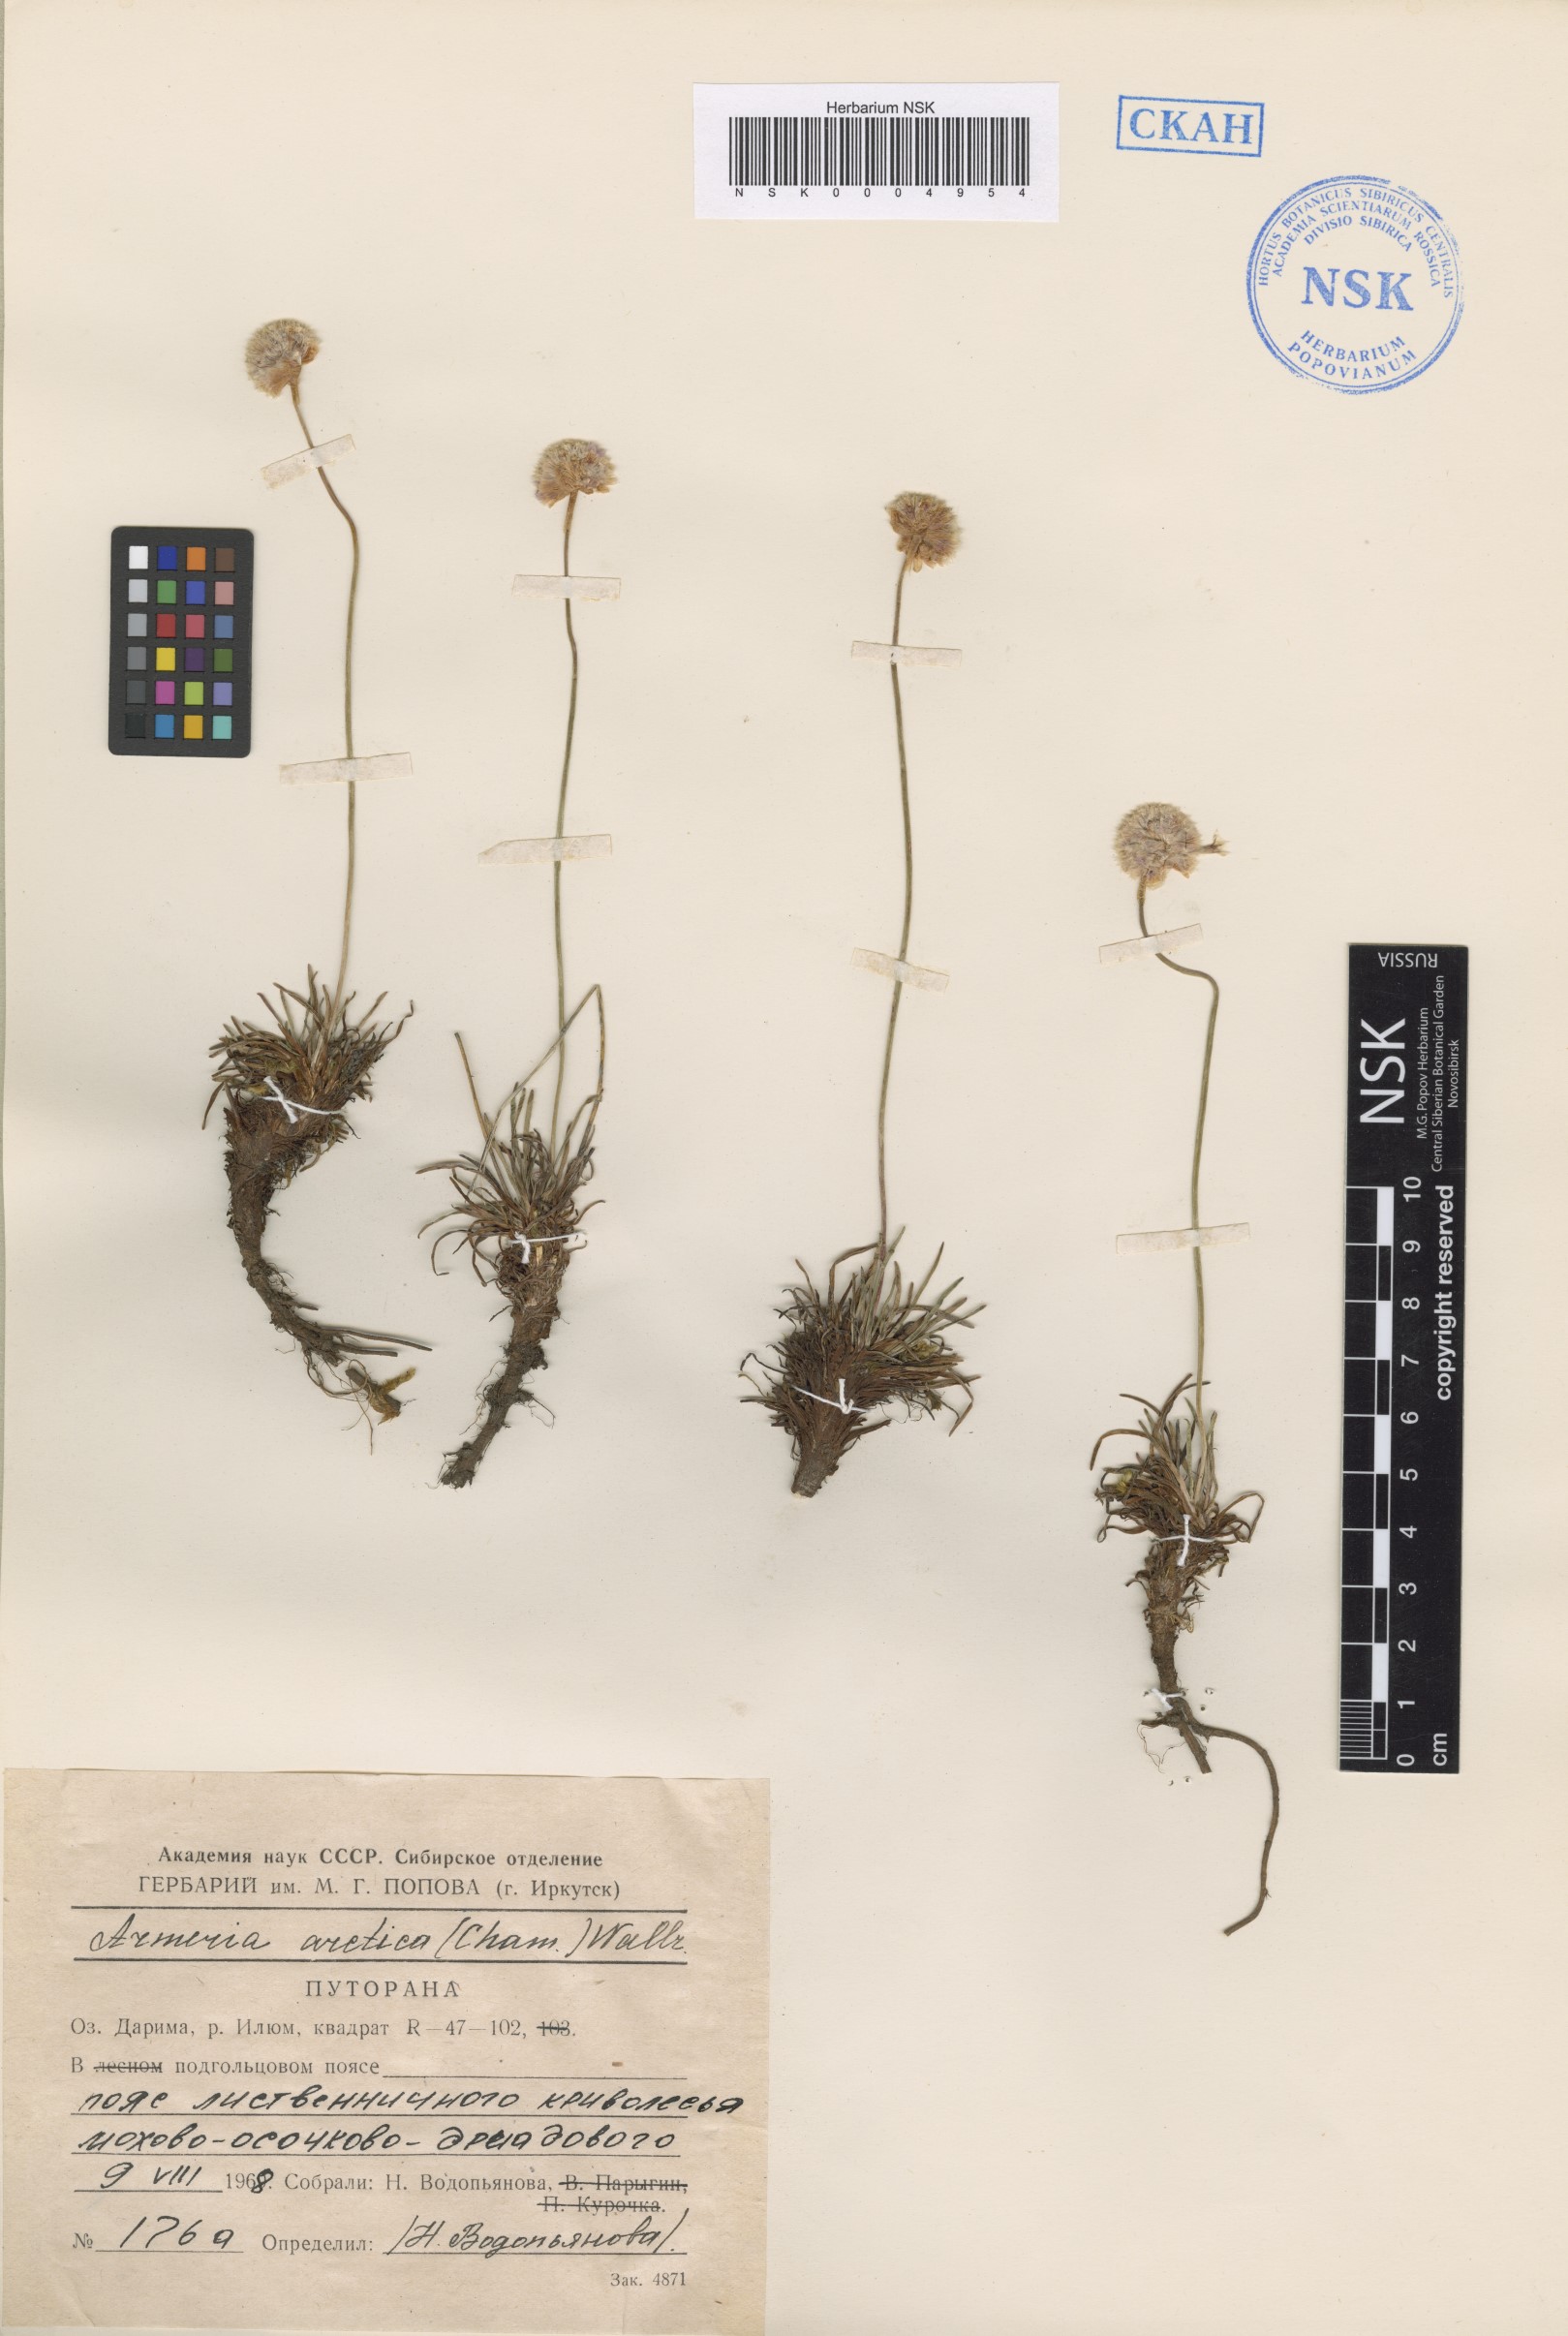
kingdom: Plantae
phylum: Tracheophyta
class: Magnoliopsida
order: Caryophyllales
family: Plumbaginaceae
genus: Armeria
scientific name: Armeria maritima
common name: Thrift
